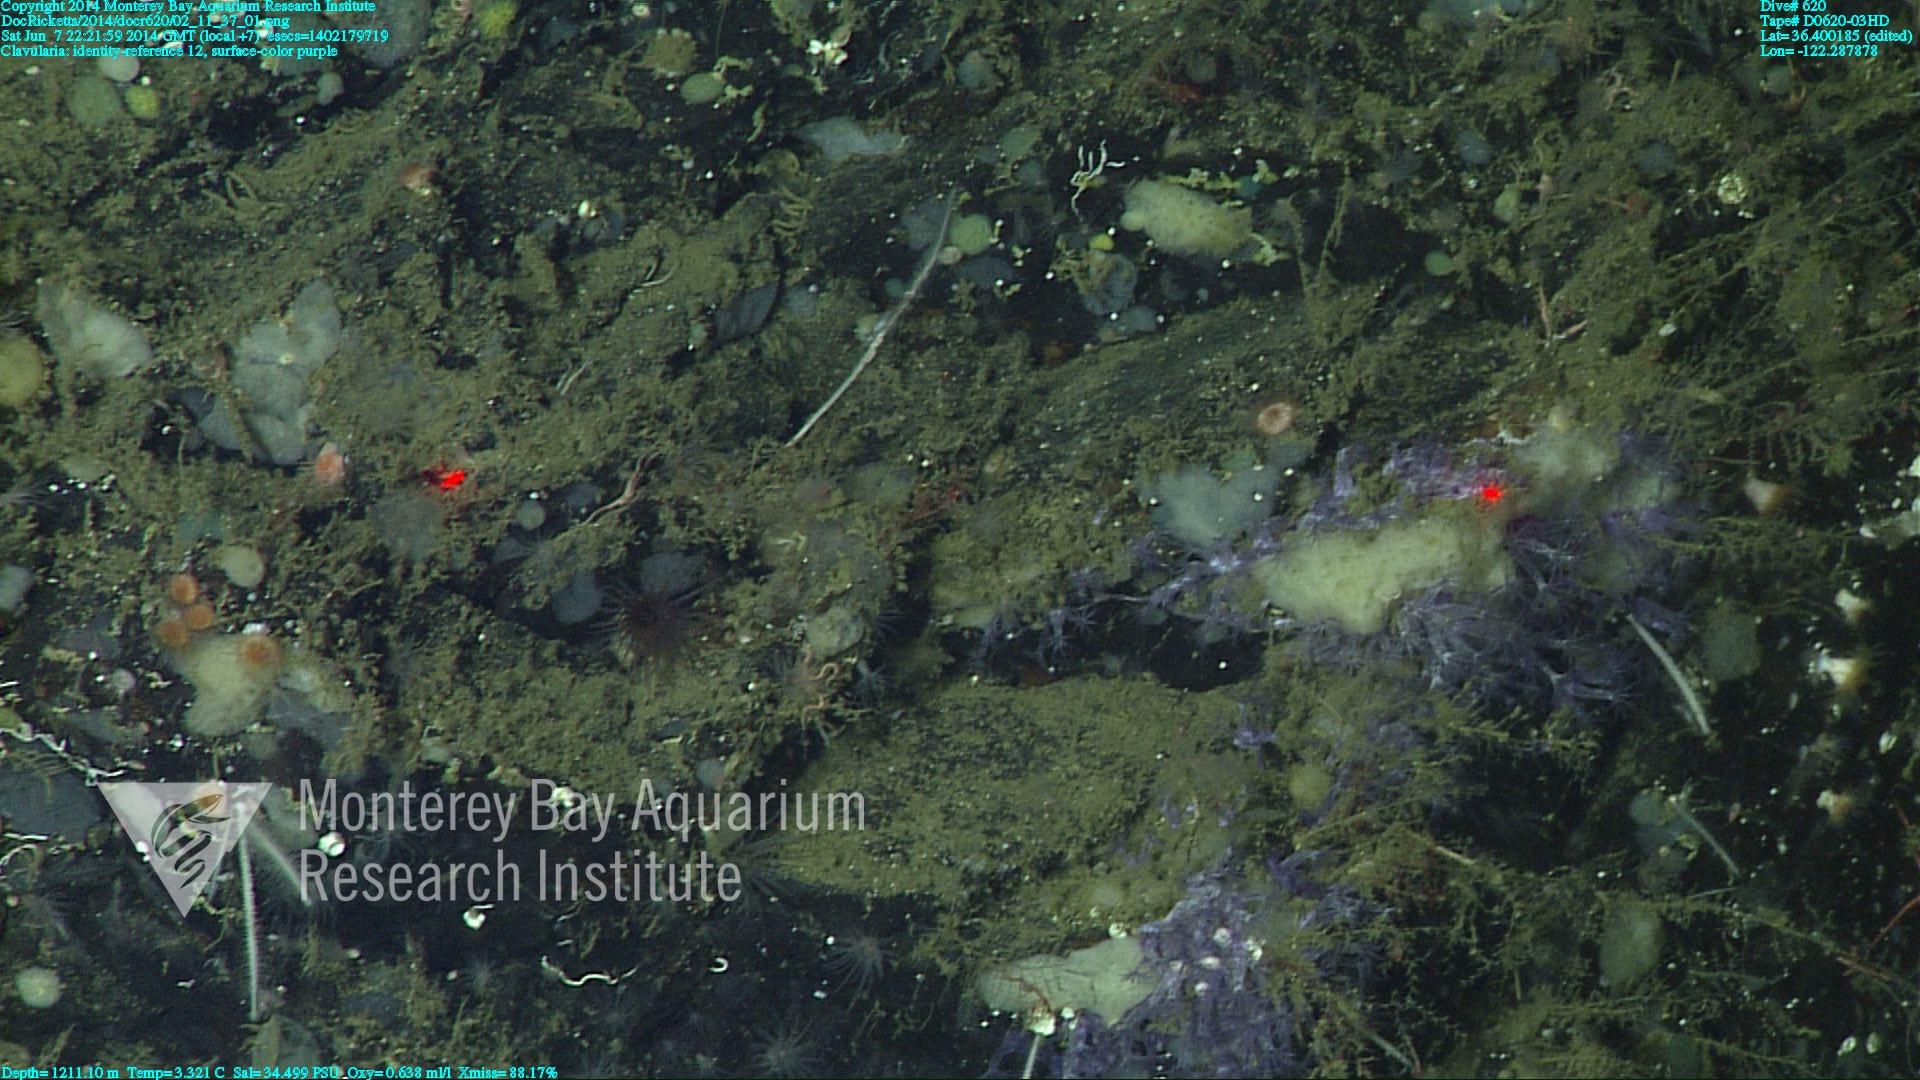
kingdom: Animalia
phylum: Cnidaria
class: Anthozoa
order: Malacalcyonacea
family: Clavulariidae
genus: Clavularia
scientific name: Clavularia
